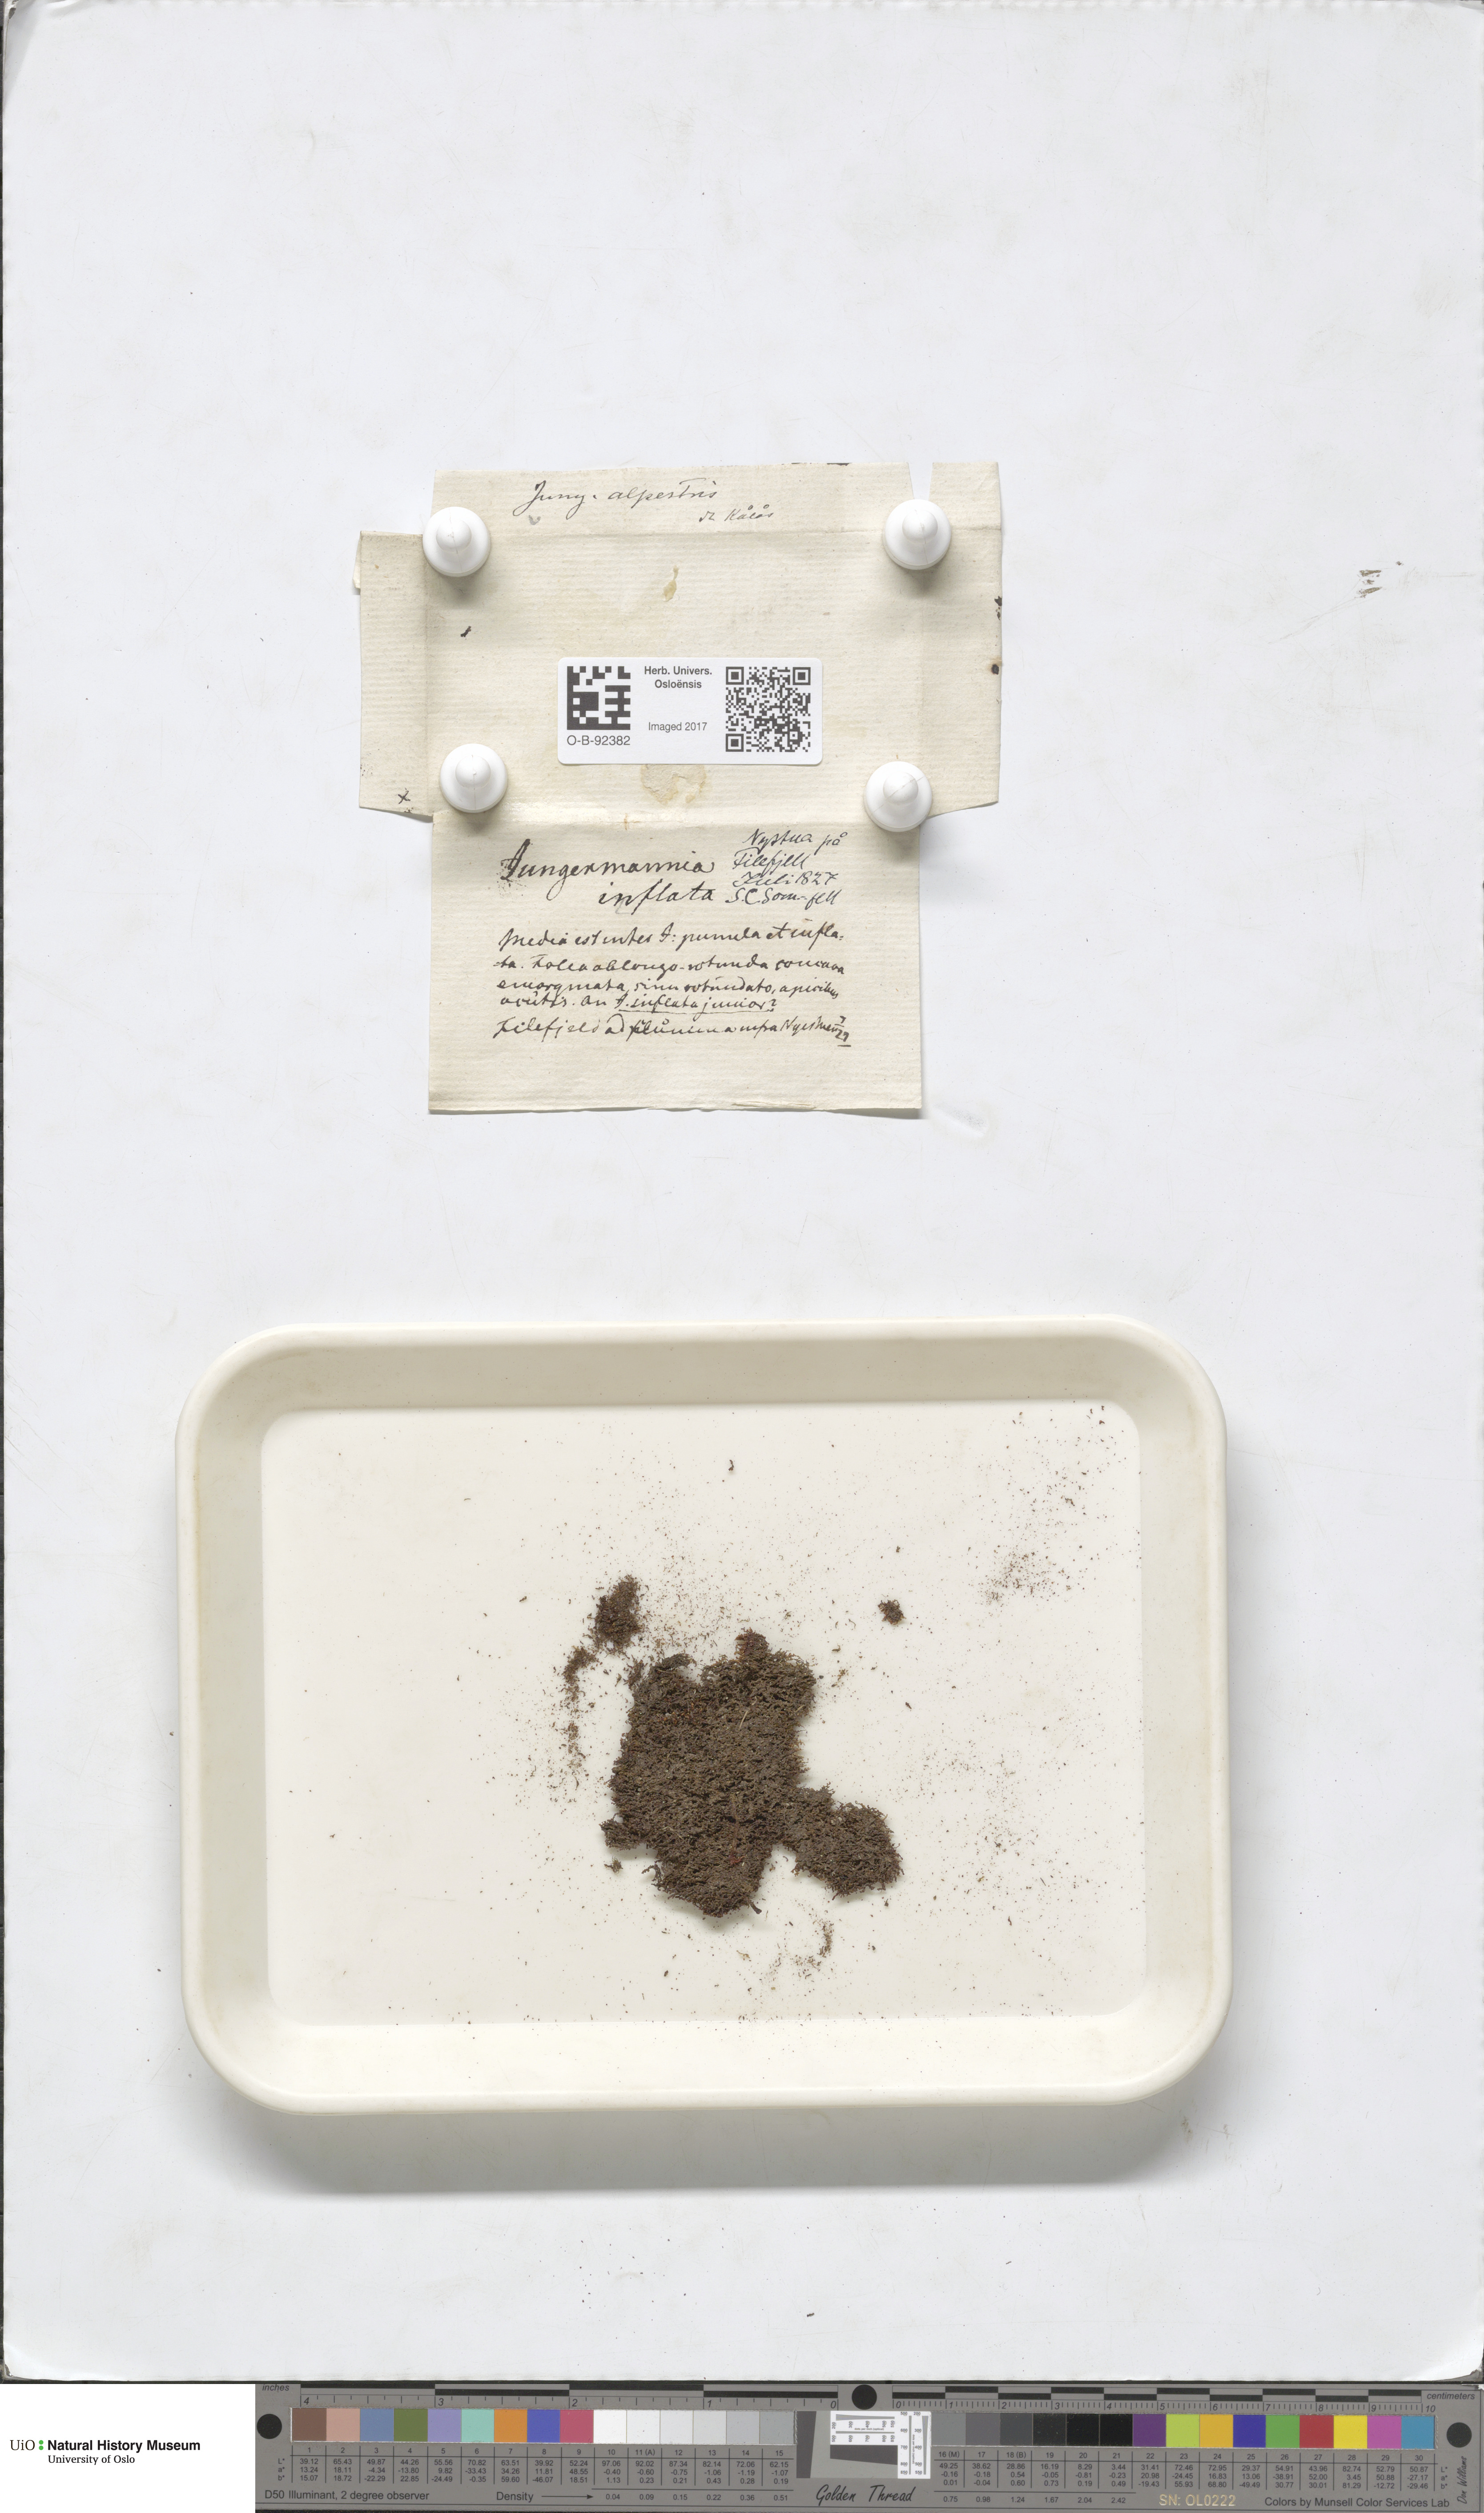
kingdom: Plantae
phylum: Marchantiophyta
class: Jungermanniopsida
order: Jungermanniales
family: Anastrophyllaceae
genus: Barbilophozia
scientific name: Barbilophozia sudetica
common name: Hill notchwort
